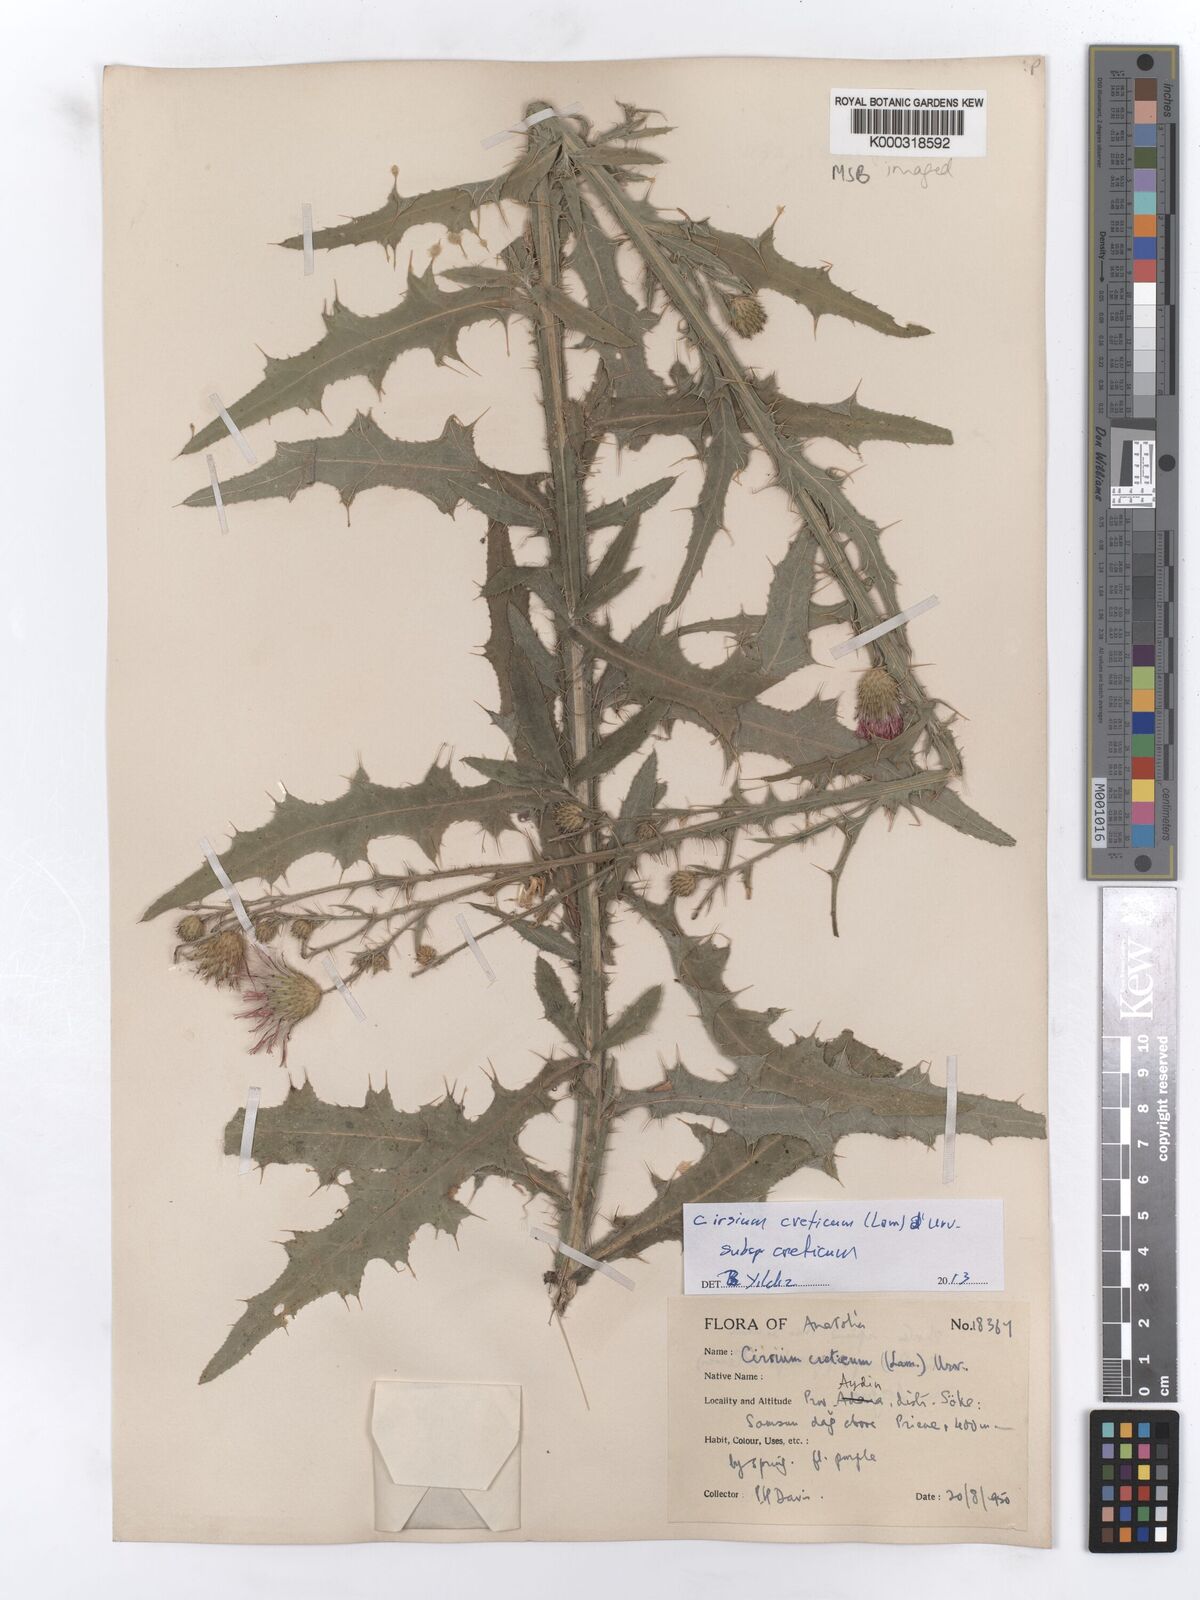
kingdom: Plantae
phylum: Tracheophyta
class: Magnoliopsida
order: Asterales
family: Asteraceae
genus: Cirsium
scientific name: Cirsium creticum
